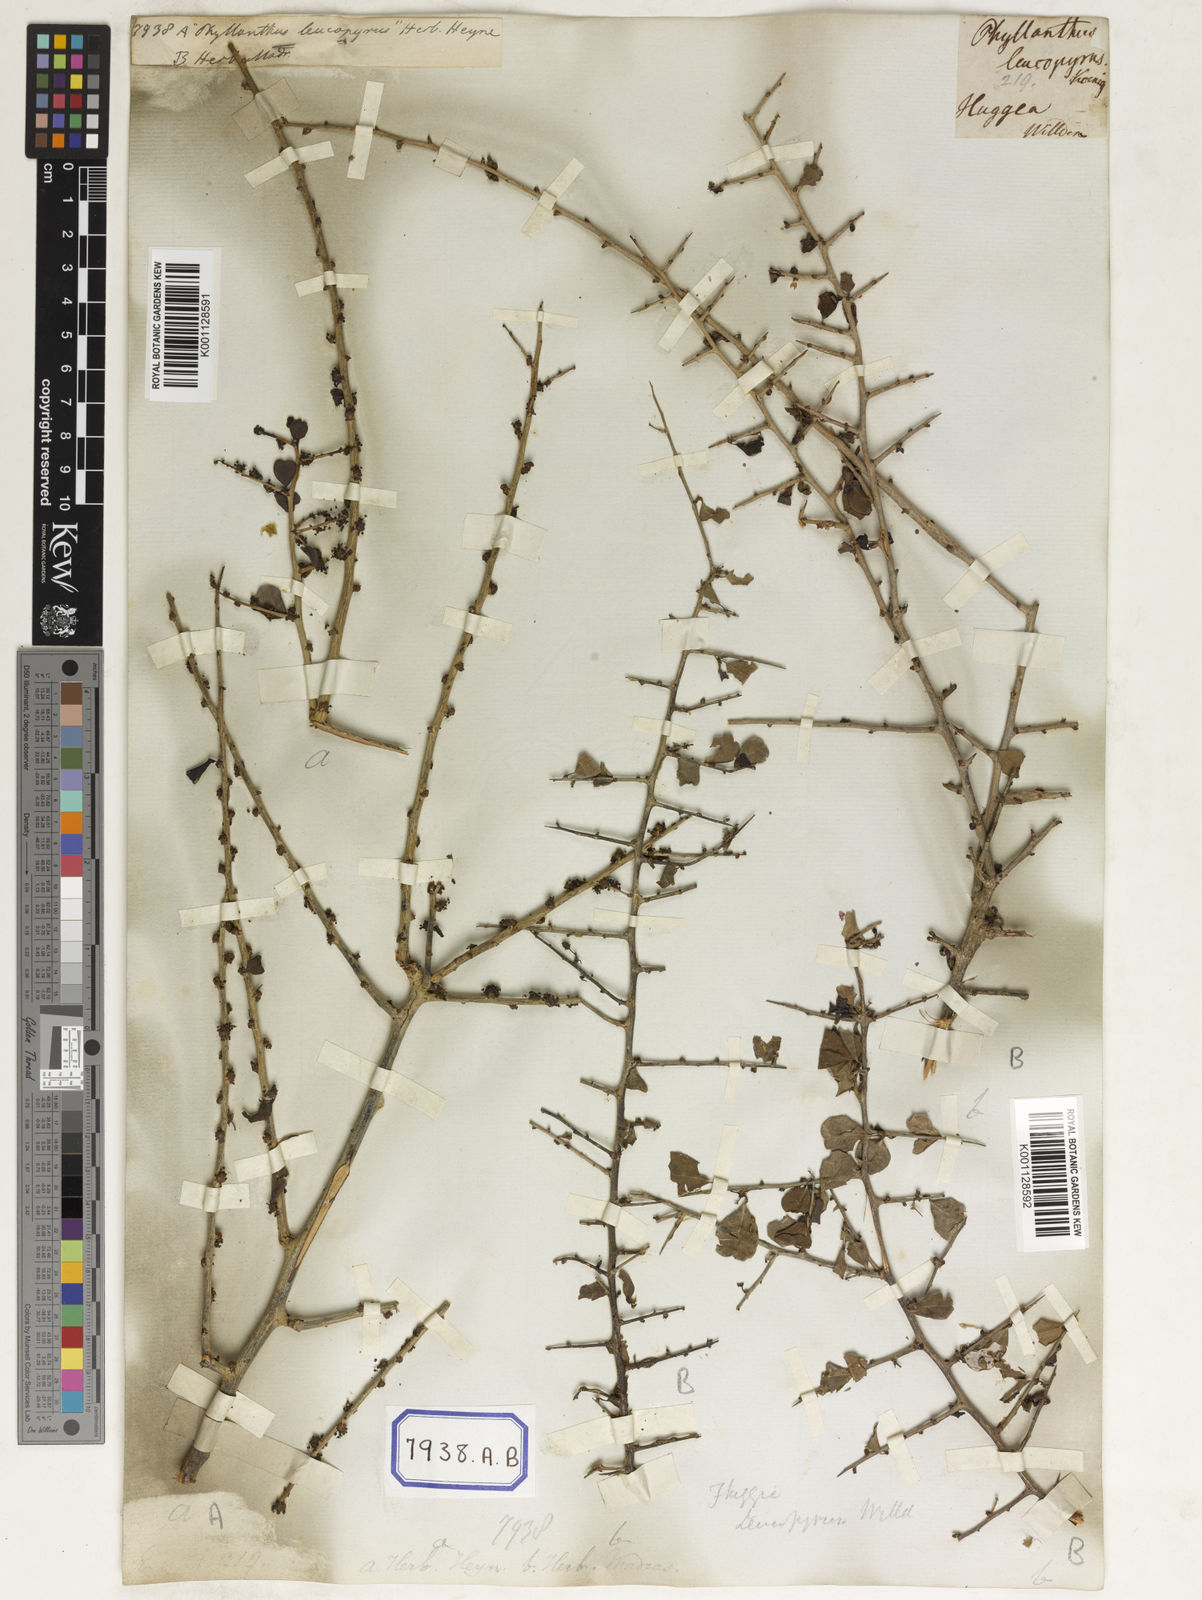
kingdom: Plantae
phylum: Tracheophyta
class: Magnoliopsida
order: Malpighiales
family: Euphorbiaceae
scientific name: Euphorbiaceae
